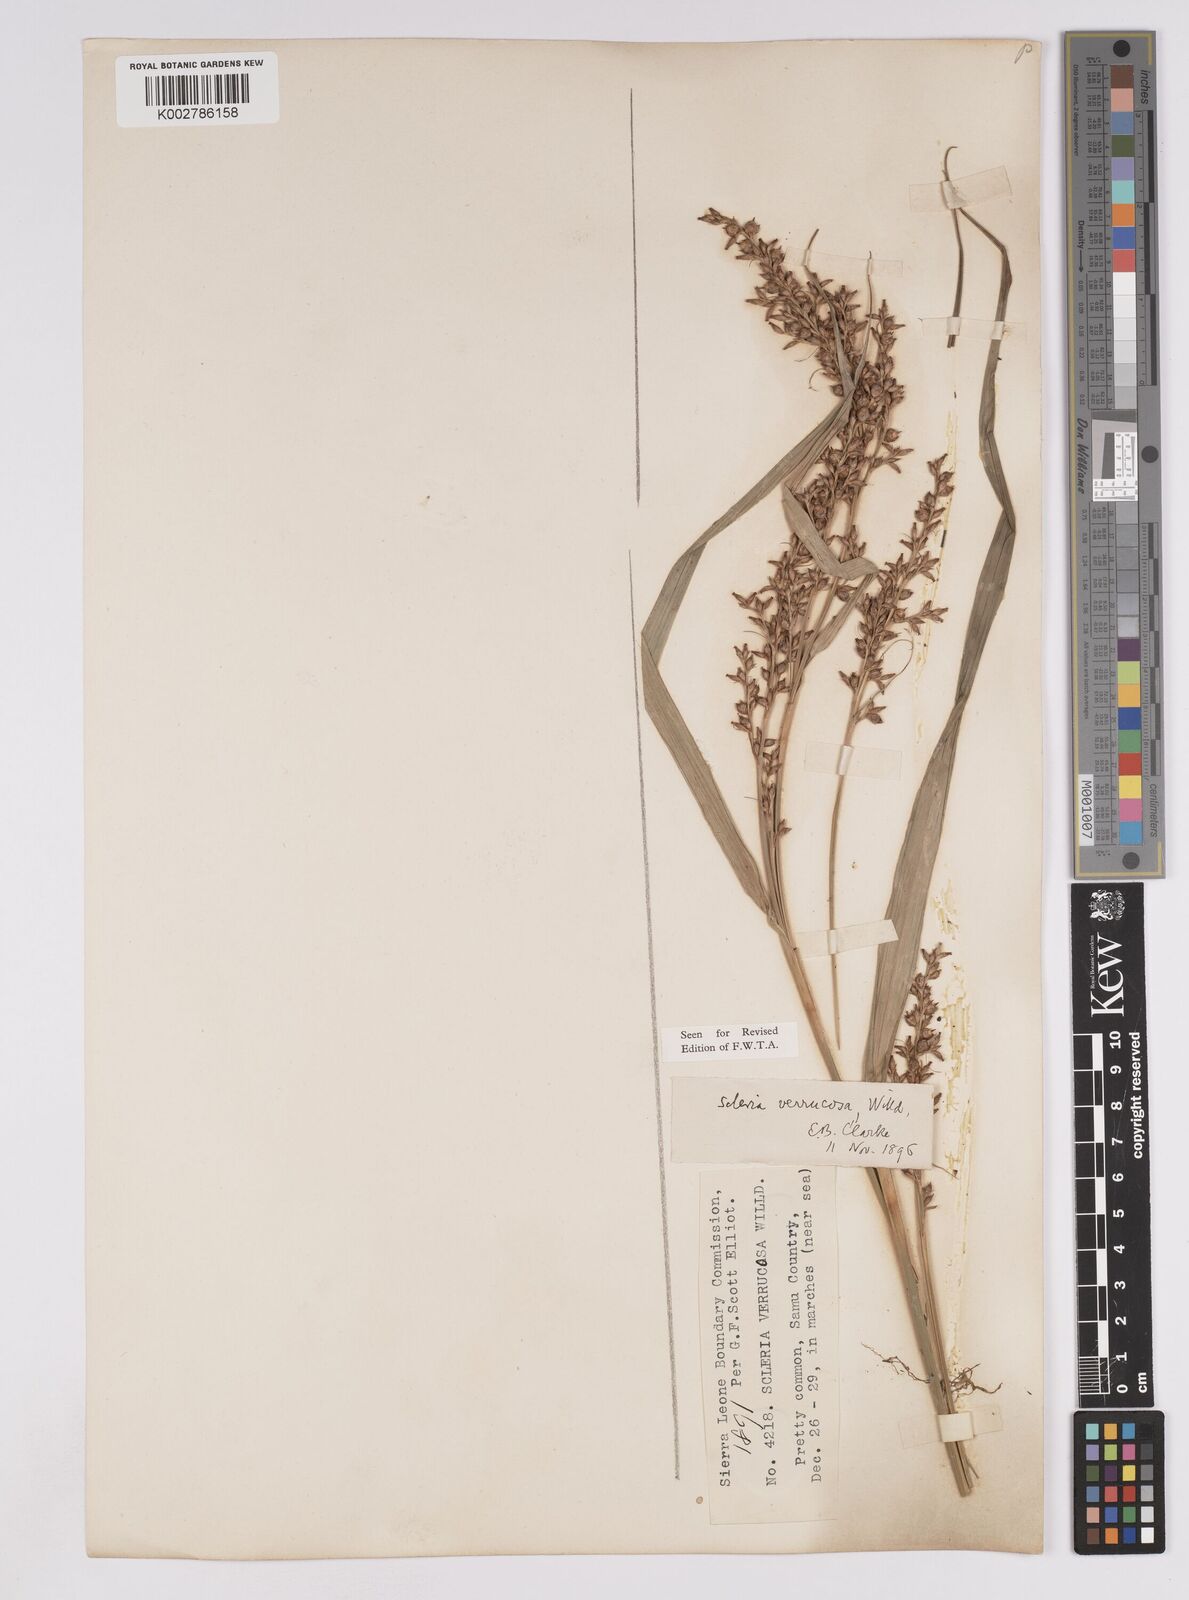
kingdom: Plantae
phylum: Tracheophyta
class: Liliopsida
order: Poales
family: Cyperaceae
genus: Scleria
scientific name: Scleria verrucosa
